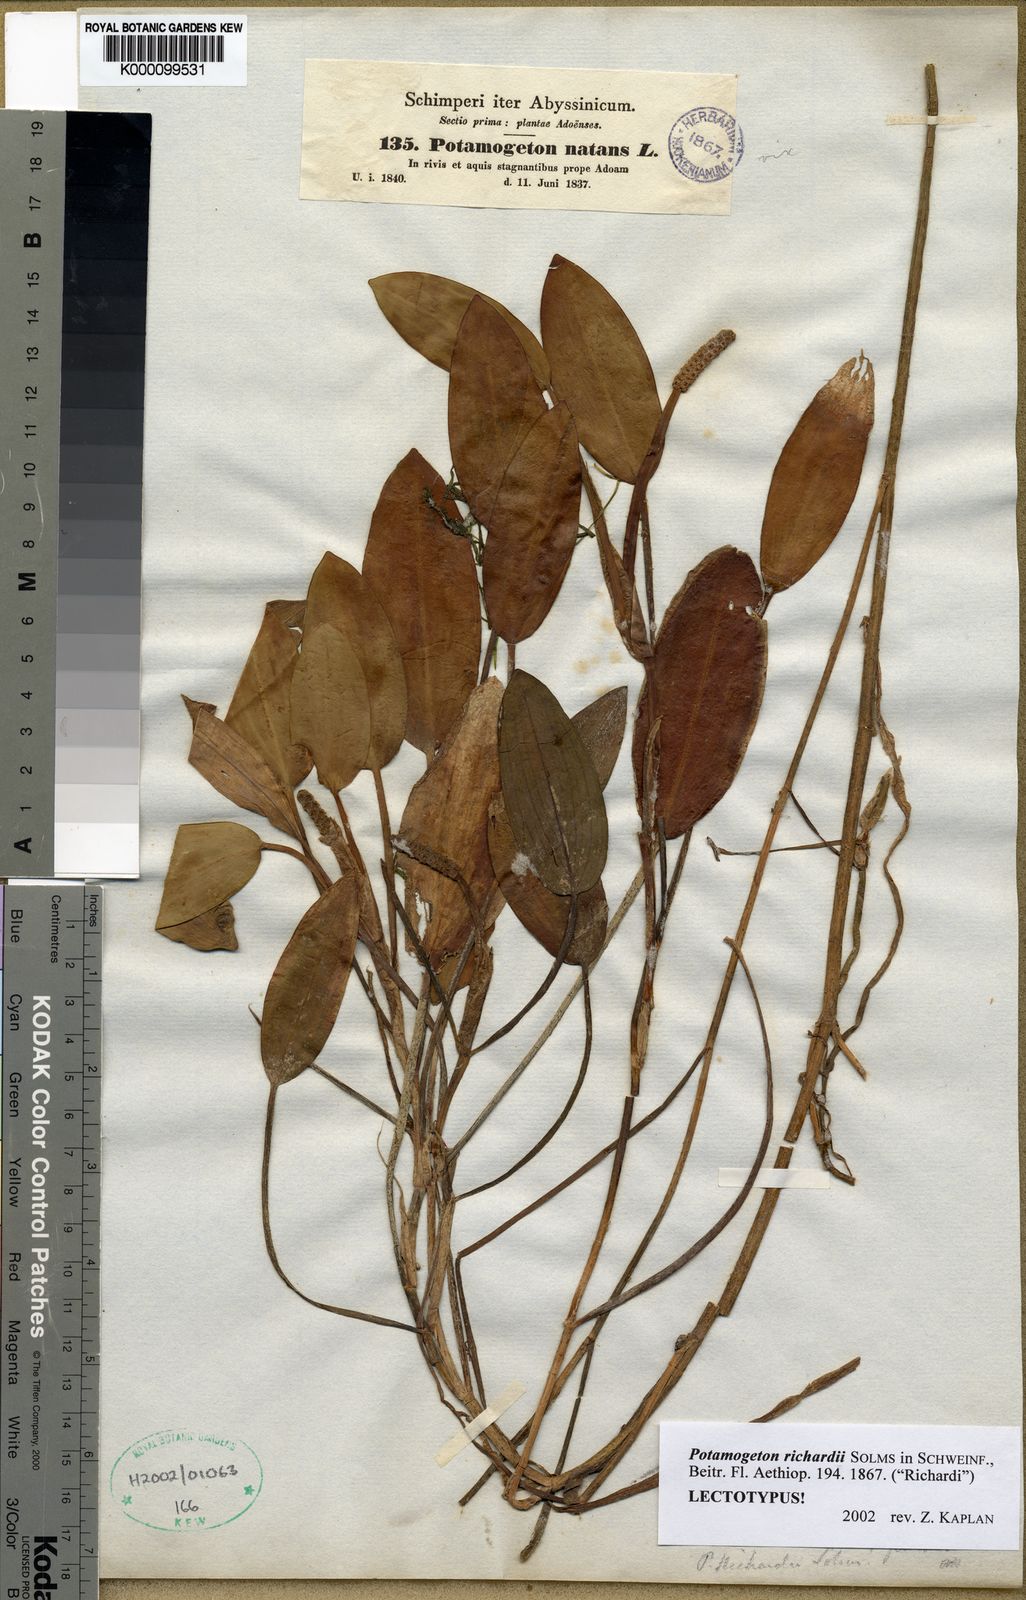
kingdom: Plantae
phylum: Tracheophyta
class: Liliopsida
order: Alismatales
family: Potamogetonaceae
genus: Potamogeton
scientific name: Potamogeton richardii
